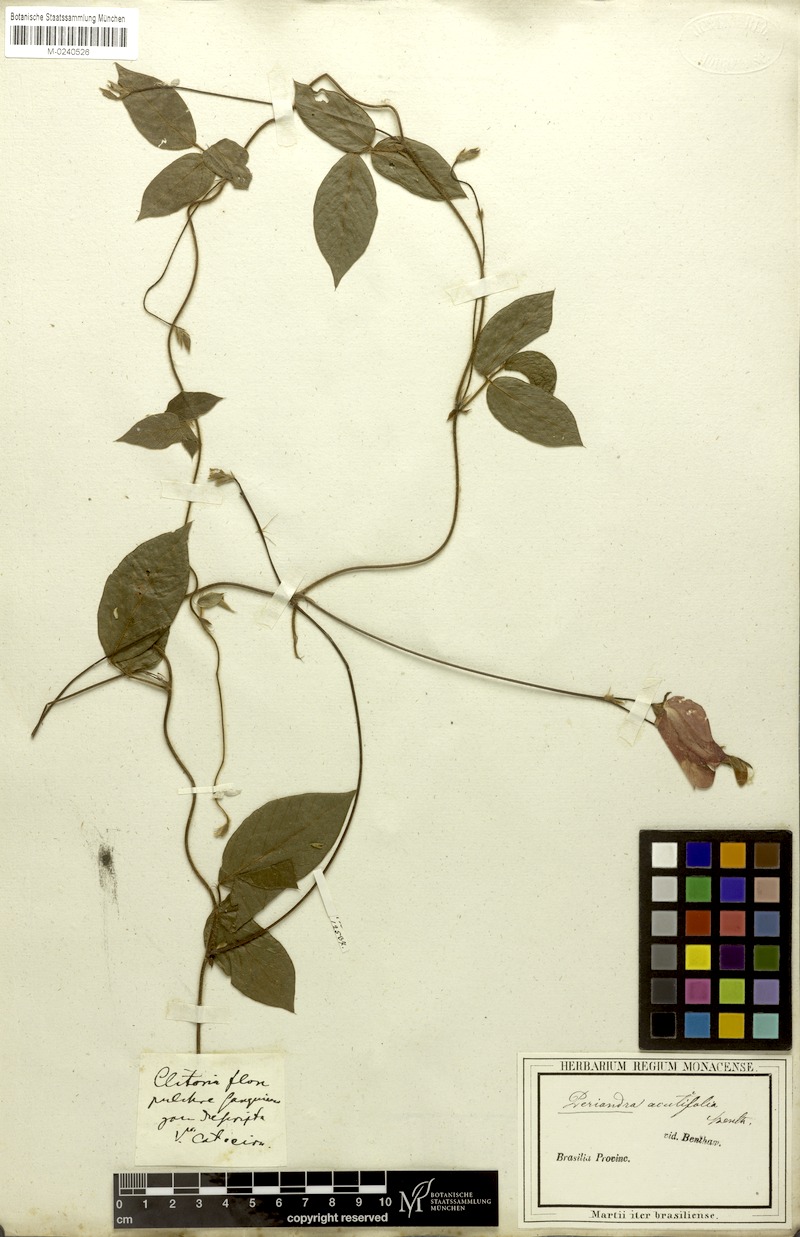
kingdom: Plantae
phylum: Tracheophyta
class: Magnoliopsida
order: Fabales
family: Fabaceae
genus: Periandra
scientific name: Periandra coccinea
